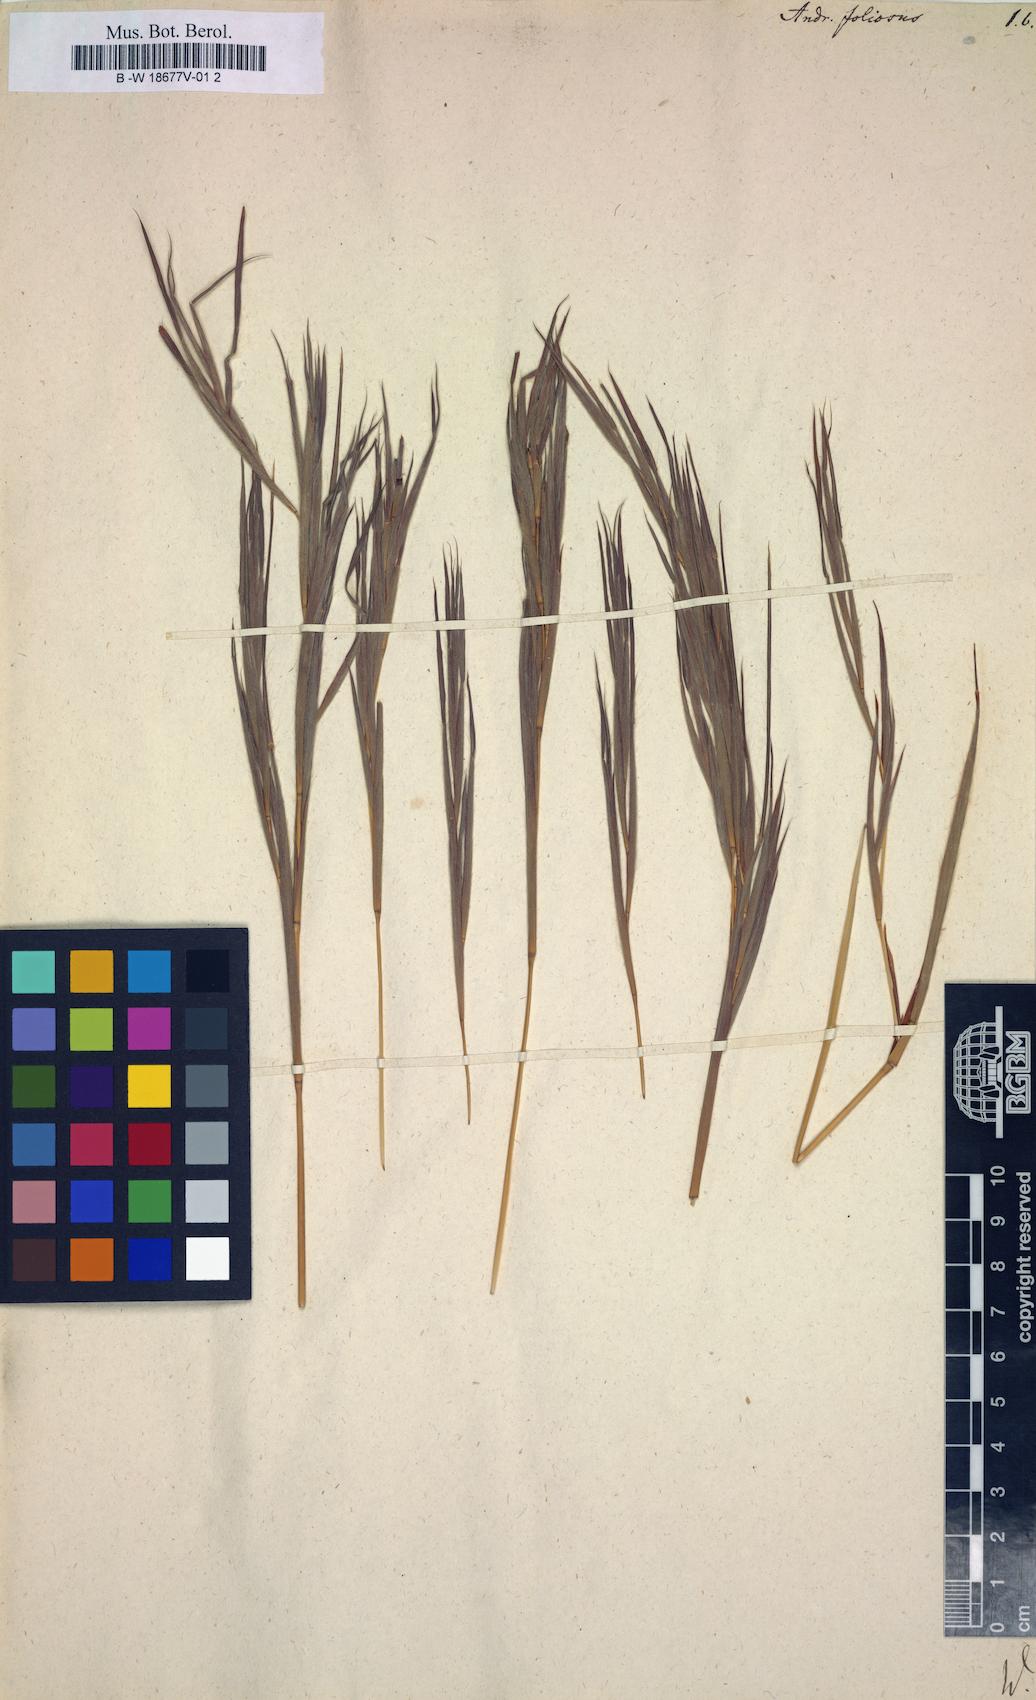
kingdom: Plantae
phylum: Tracheophyta
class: Liliopsida
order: Poales
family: Poaceae
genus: Cymbopogon
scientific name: Cymbopogon caesius
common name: Kachi grass
